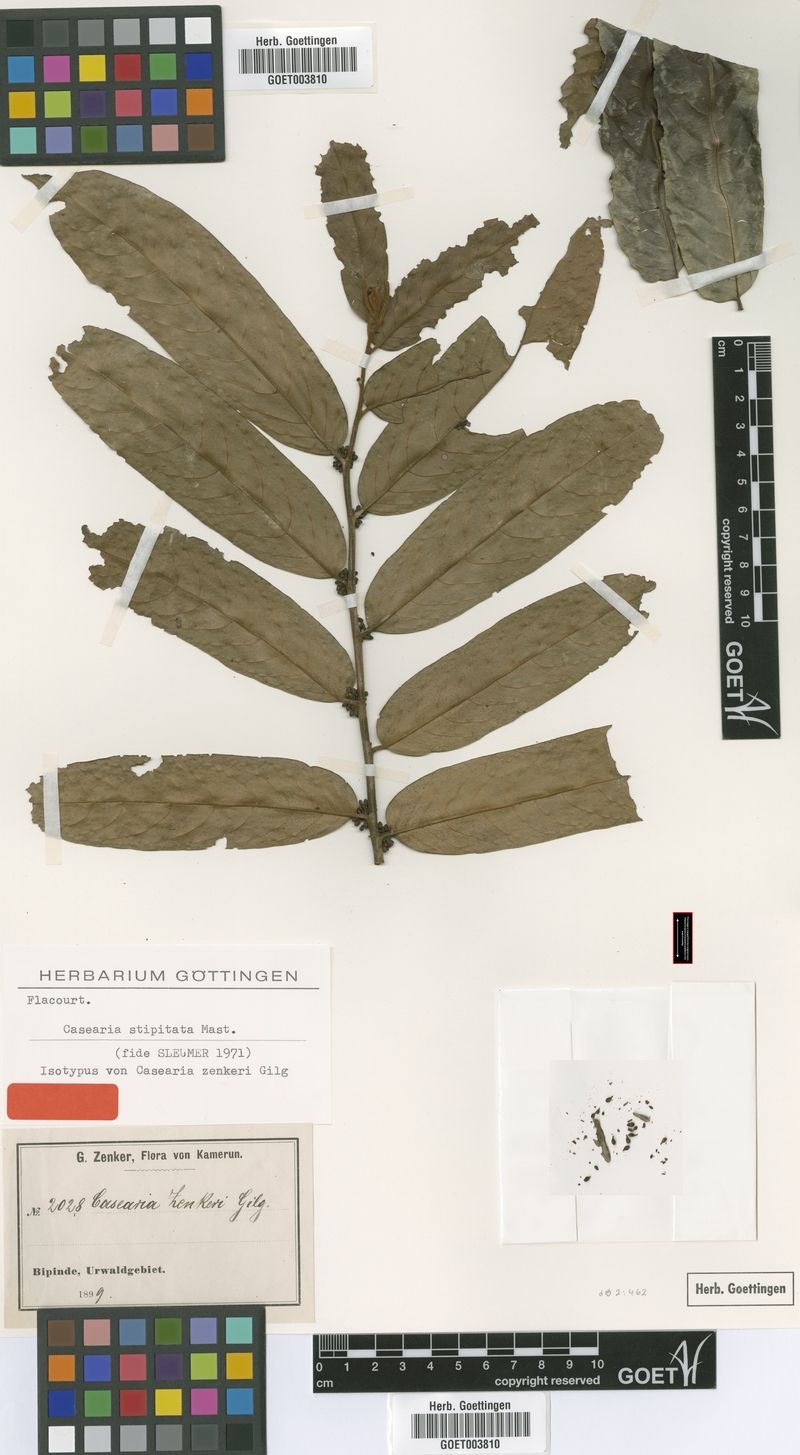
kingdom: Plantae
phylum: Tracheophyta
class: Magnoliopsida
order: Malpighiales
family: Salicaceae
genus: Casearia
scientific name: Casearia stipitata
